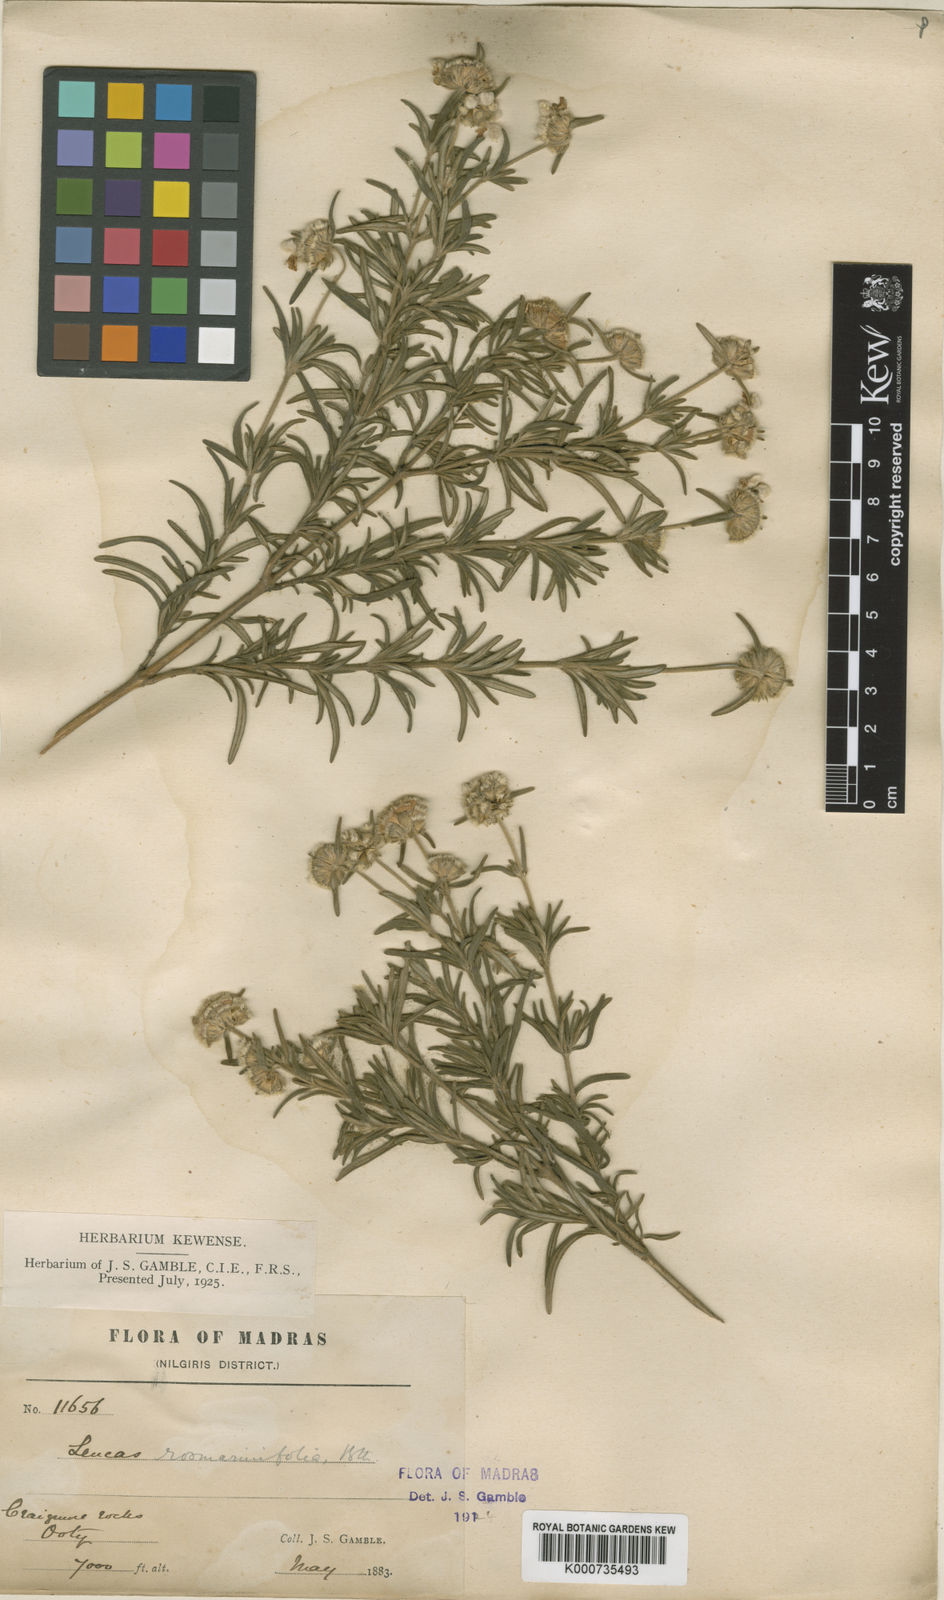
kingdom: Plantae
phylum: Tracheophyta
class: Magnoliopsida
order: Lamiales
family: Lamiaceae
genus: Leucas
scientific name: Leucas rosmarinifolia
